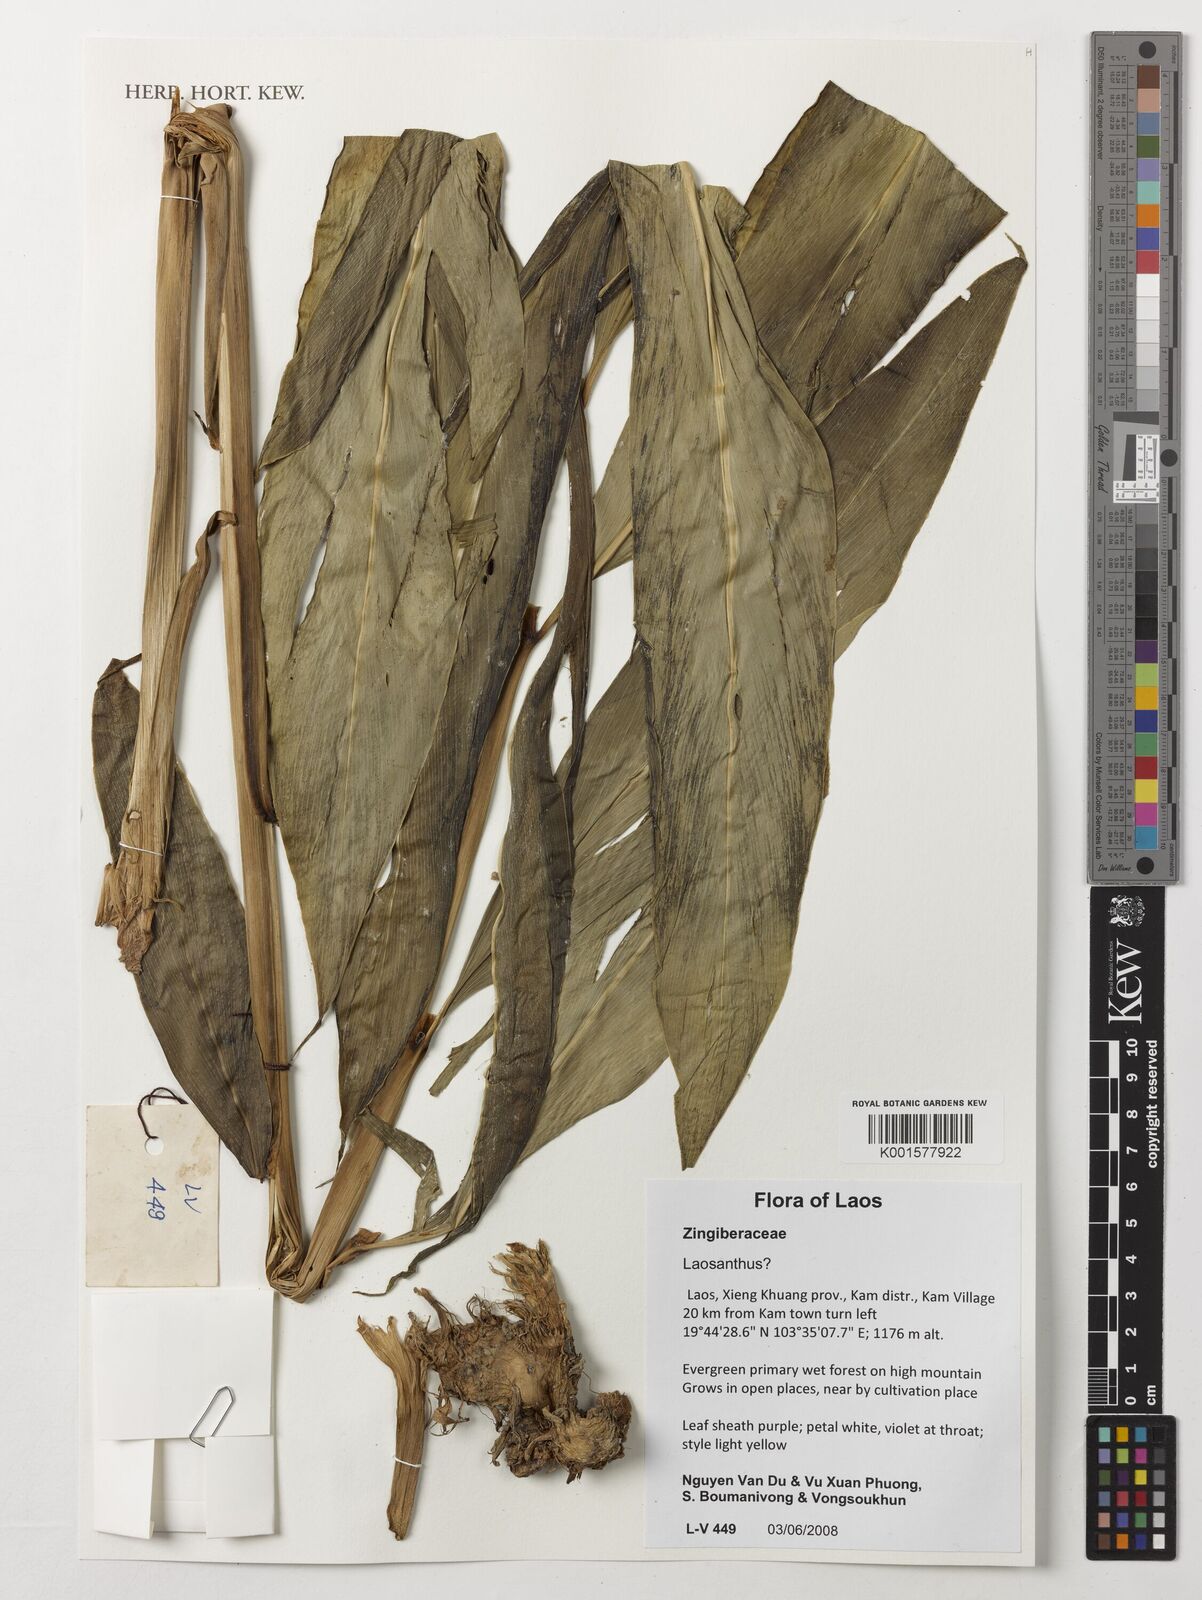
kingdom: Plantae
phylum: Tracheophyta
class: Liliopsida
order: Zingiberales
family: Zingiberaceae
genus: Curcuma
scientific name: Curcuma
